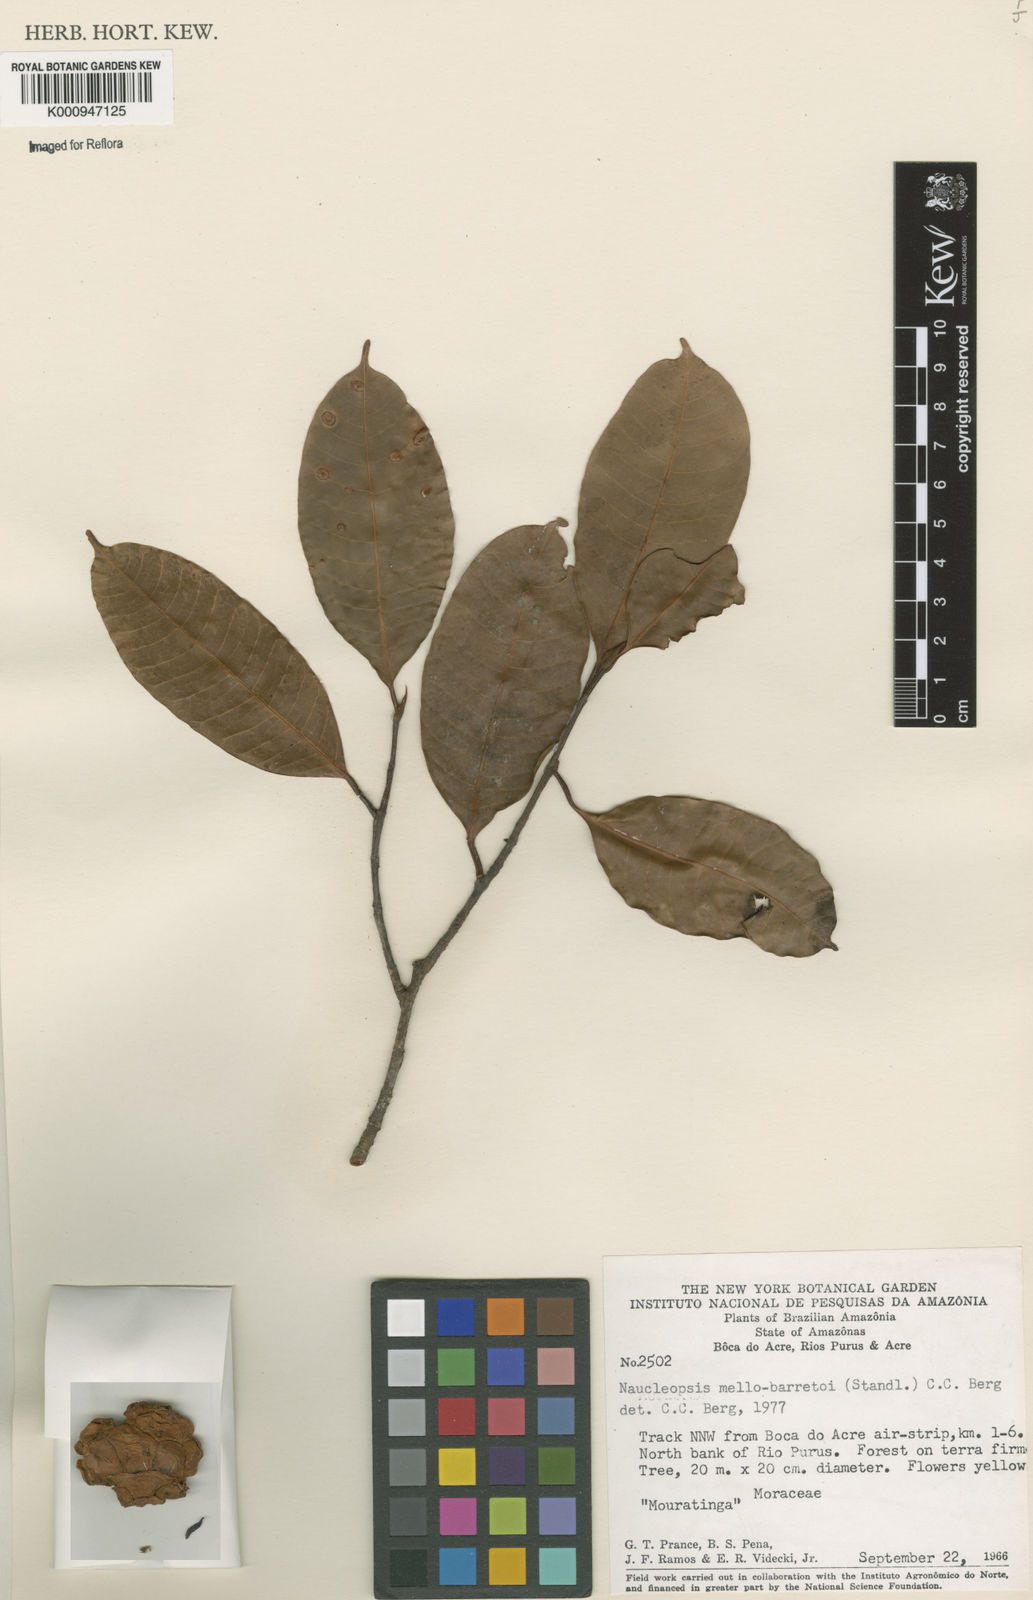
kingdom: Plantae
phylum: Tracheophyta
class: Magnoliopsida
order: Rosales
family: Moraceae
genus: Naucleopsis
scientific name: Naucleopsis oblongifolia
